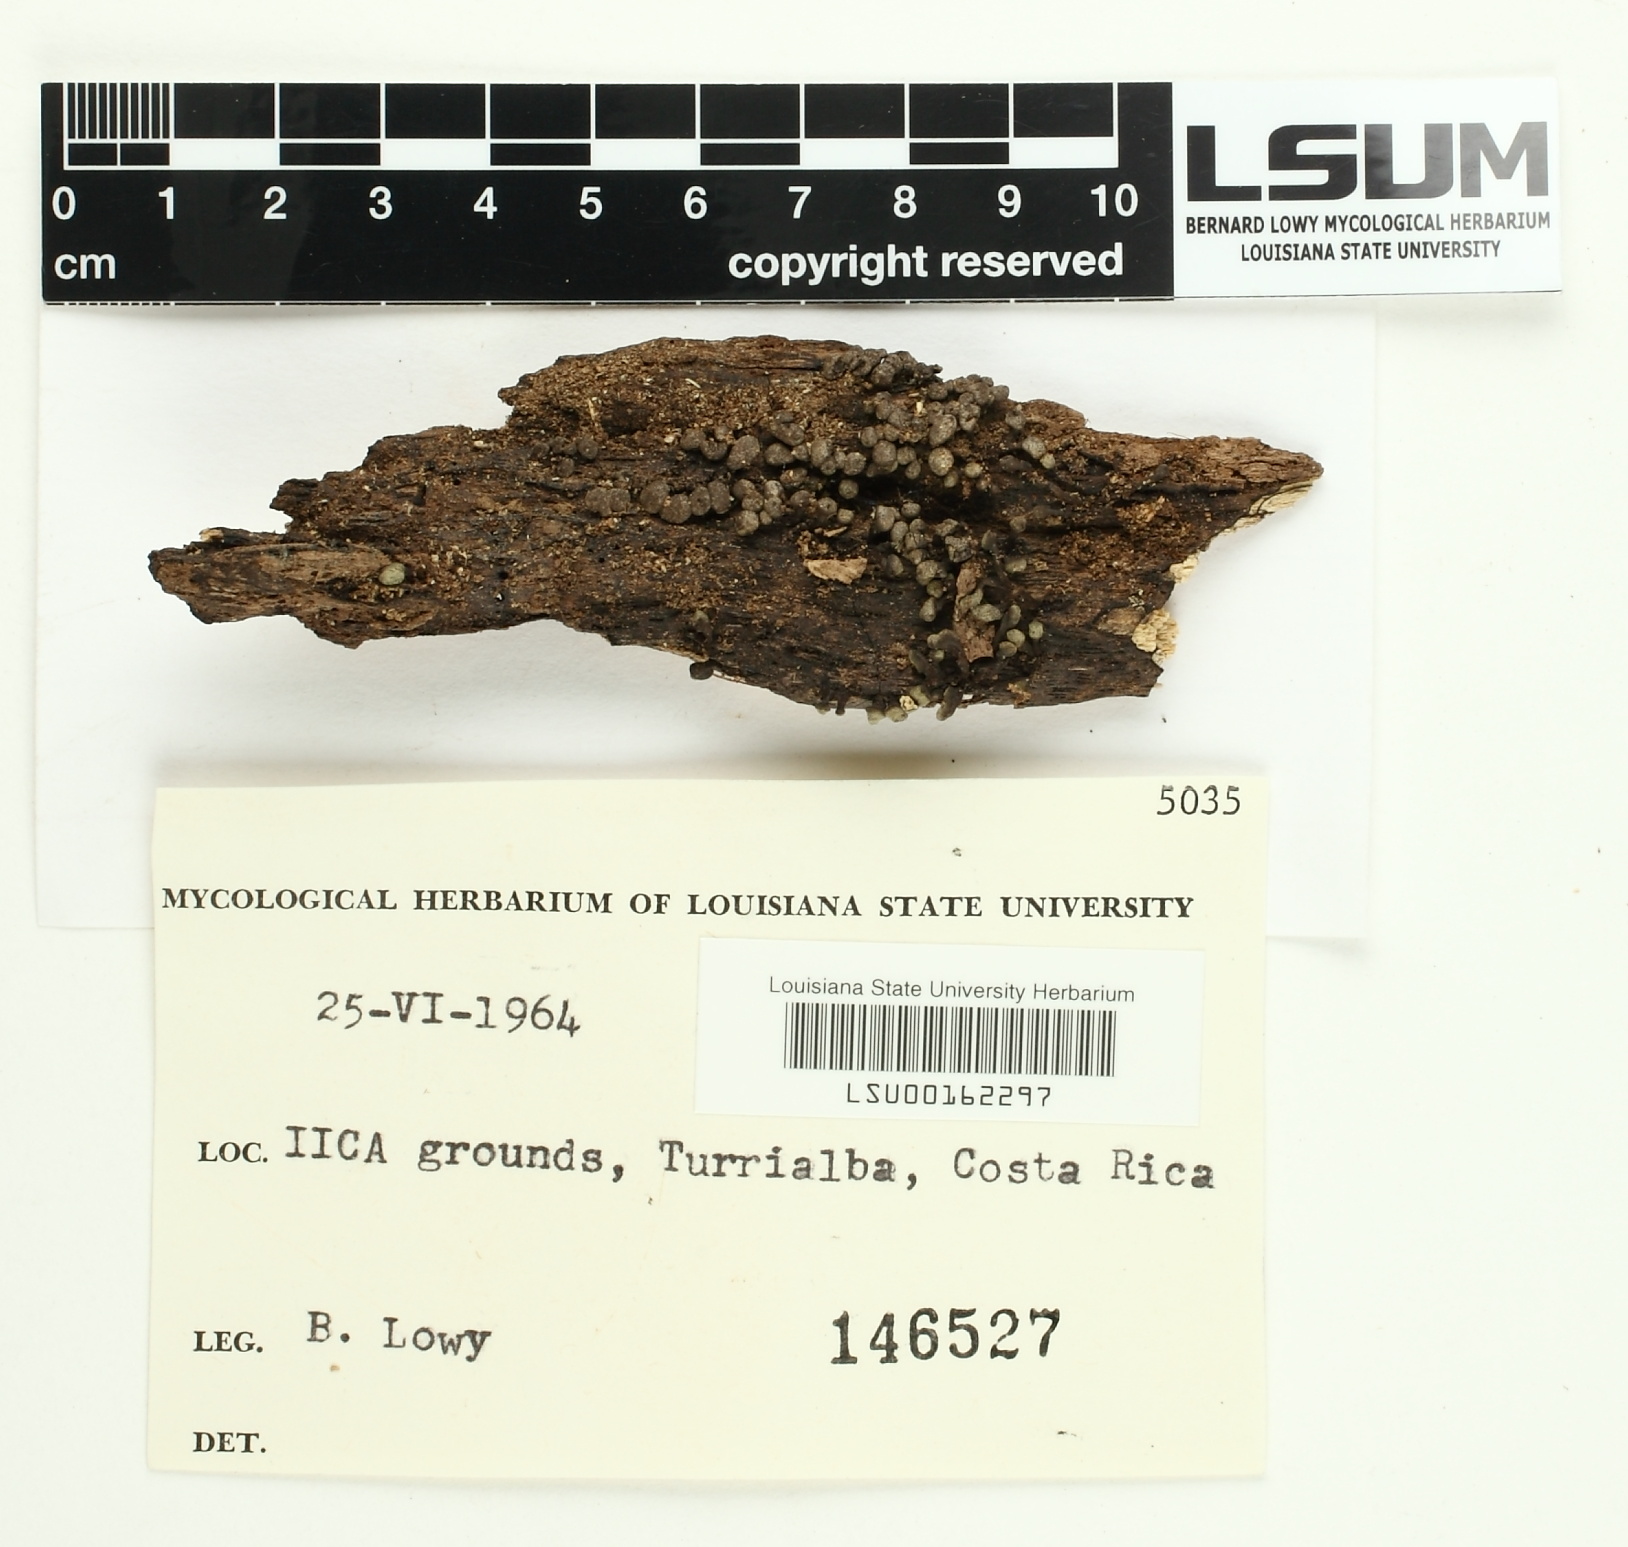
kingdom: Fungi
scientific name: Fungi
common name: Fungi
